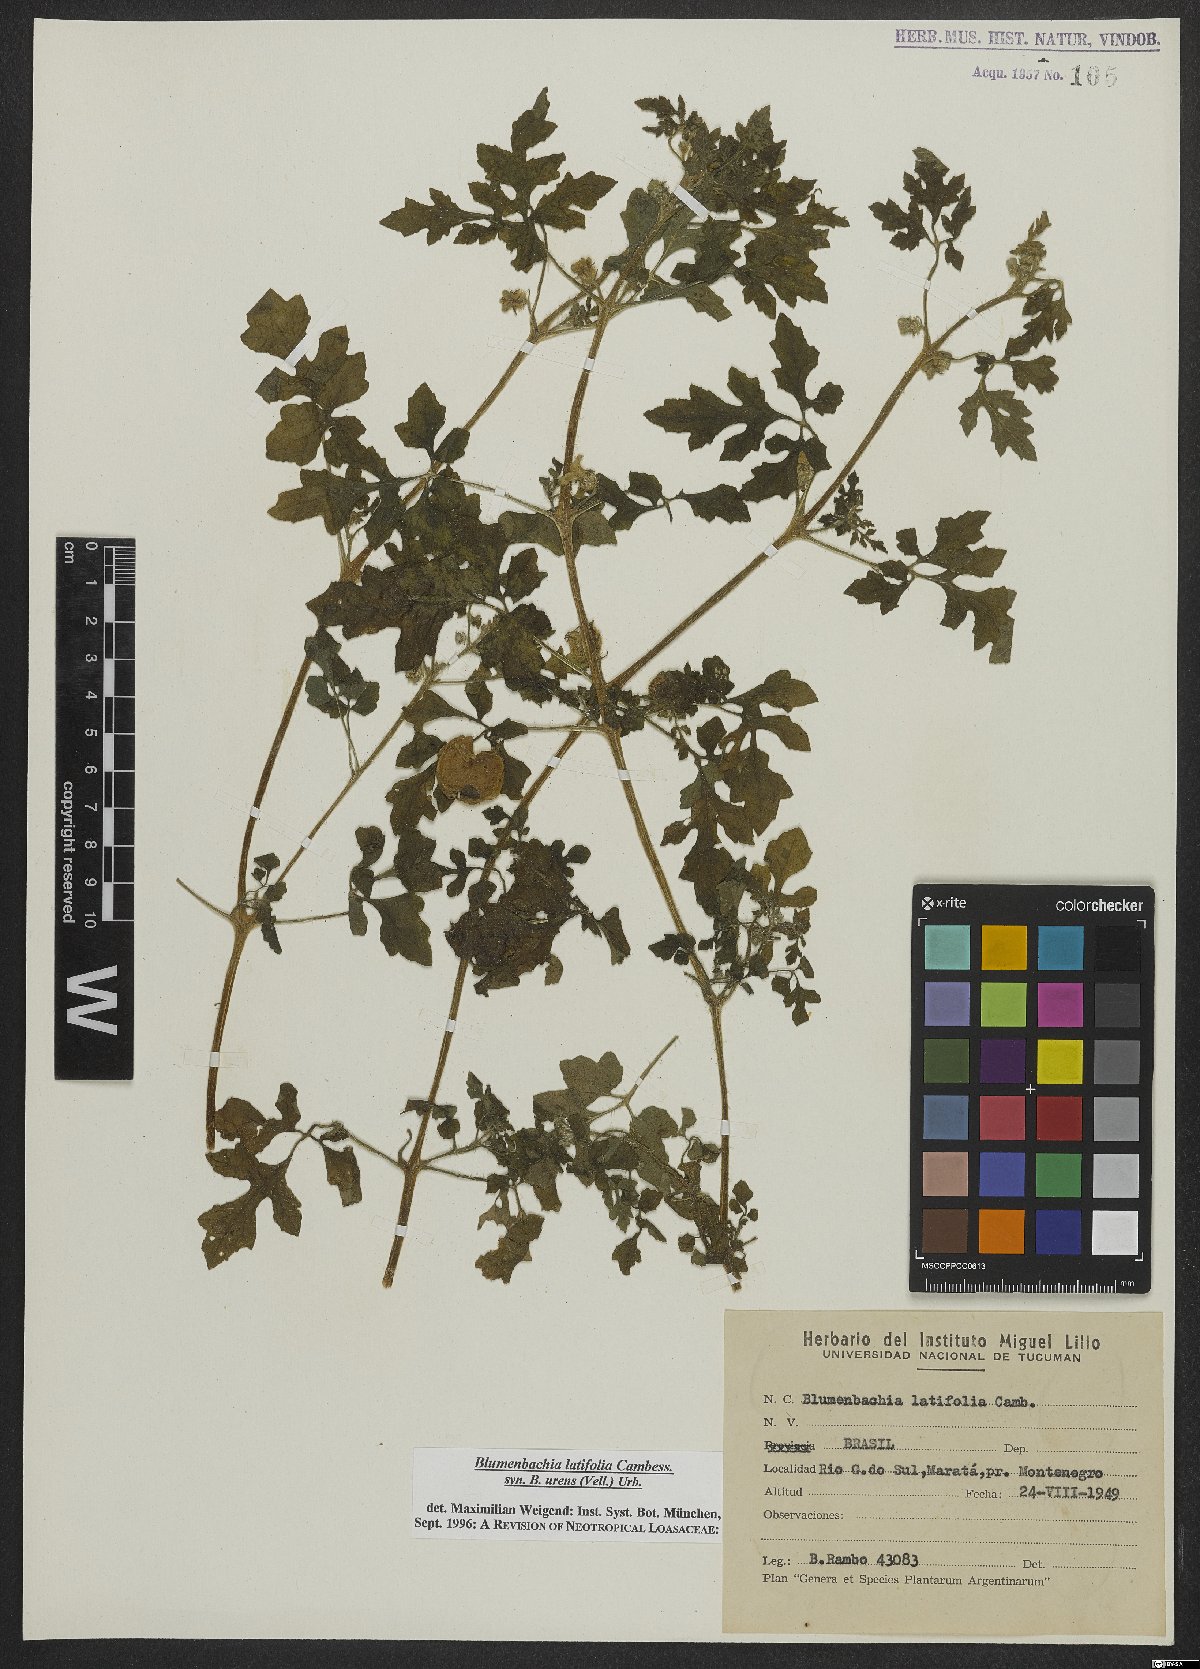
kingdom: Plantae
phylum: Tracheophyta
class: Magnoliopsida
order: Cornales
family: Loasaceae
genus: Blumenbachia
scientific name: Blumenbachia latifolia
